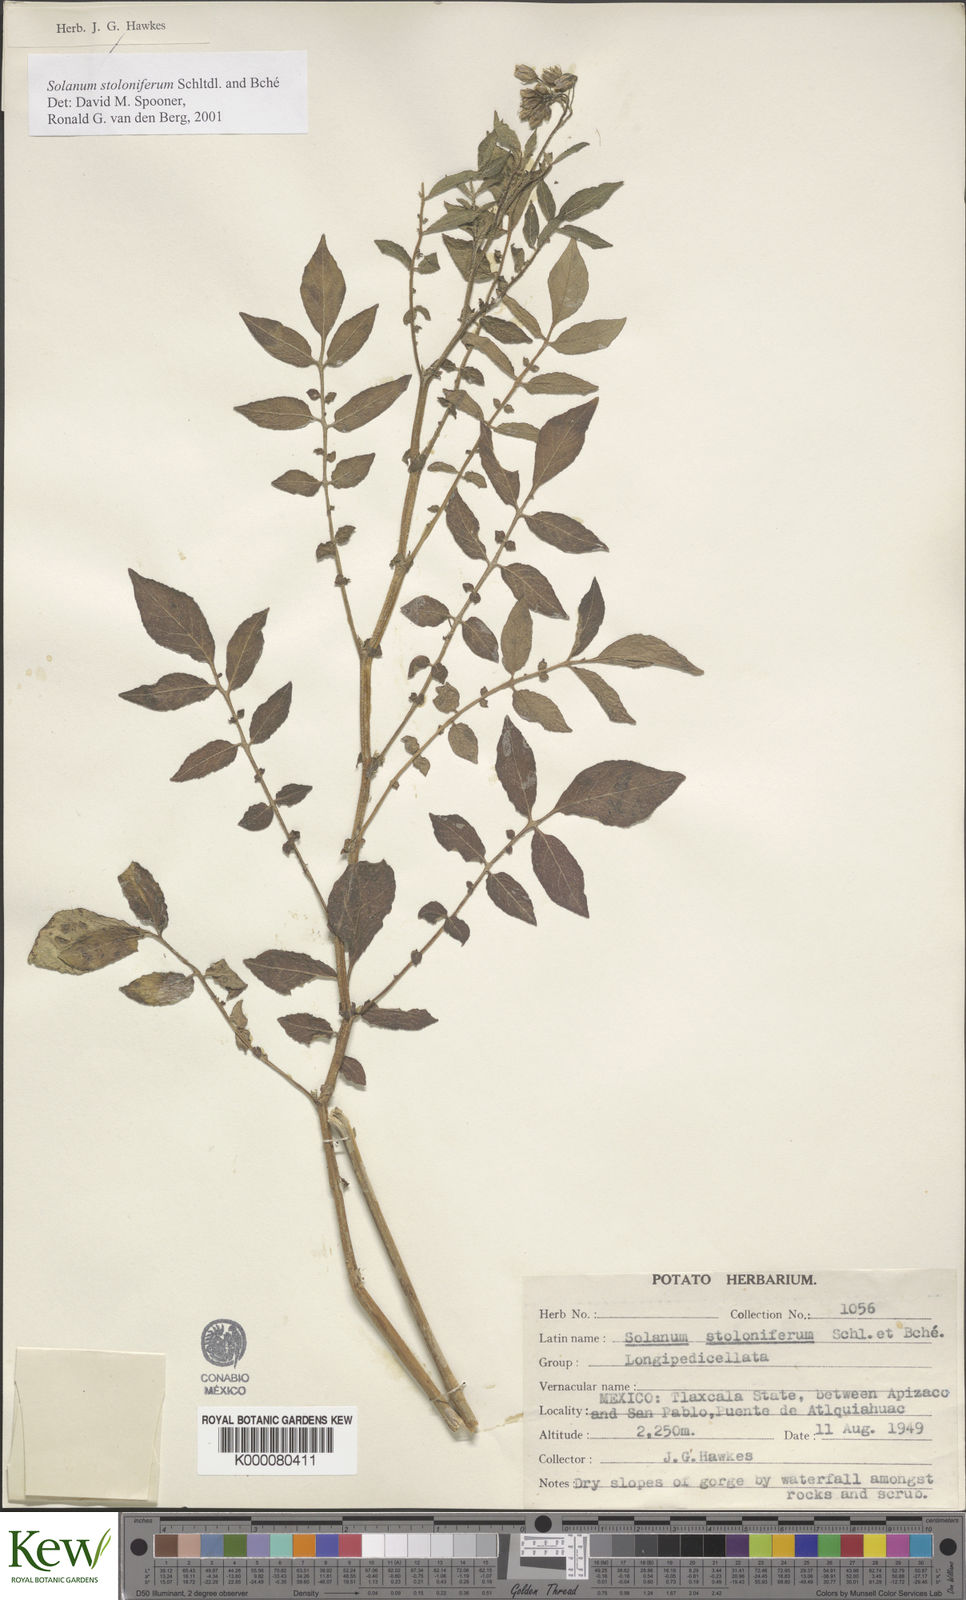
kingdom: Plantae
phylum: Tracheophyta
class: Magnoliopsida
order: Solanales
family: Solanaceae
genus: Solanum
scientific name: Solanum stoloniferum
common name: Fendler's nighshade
